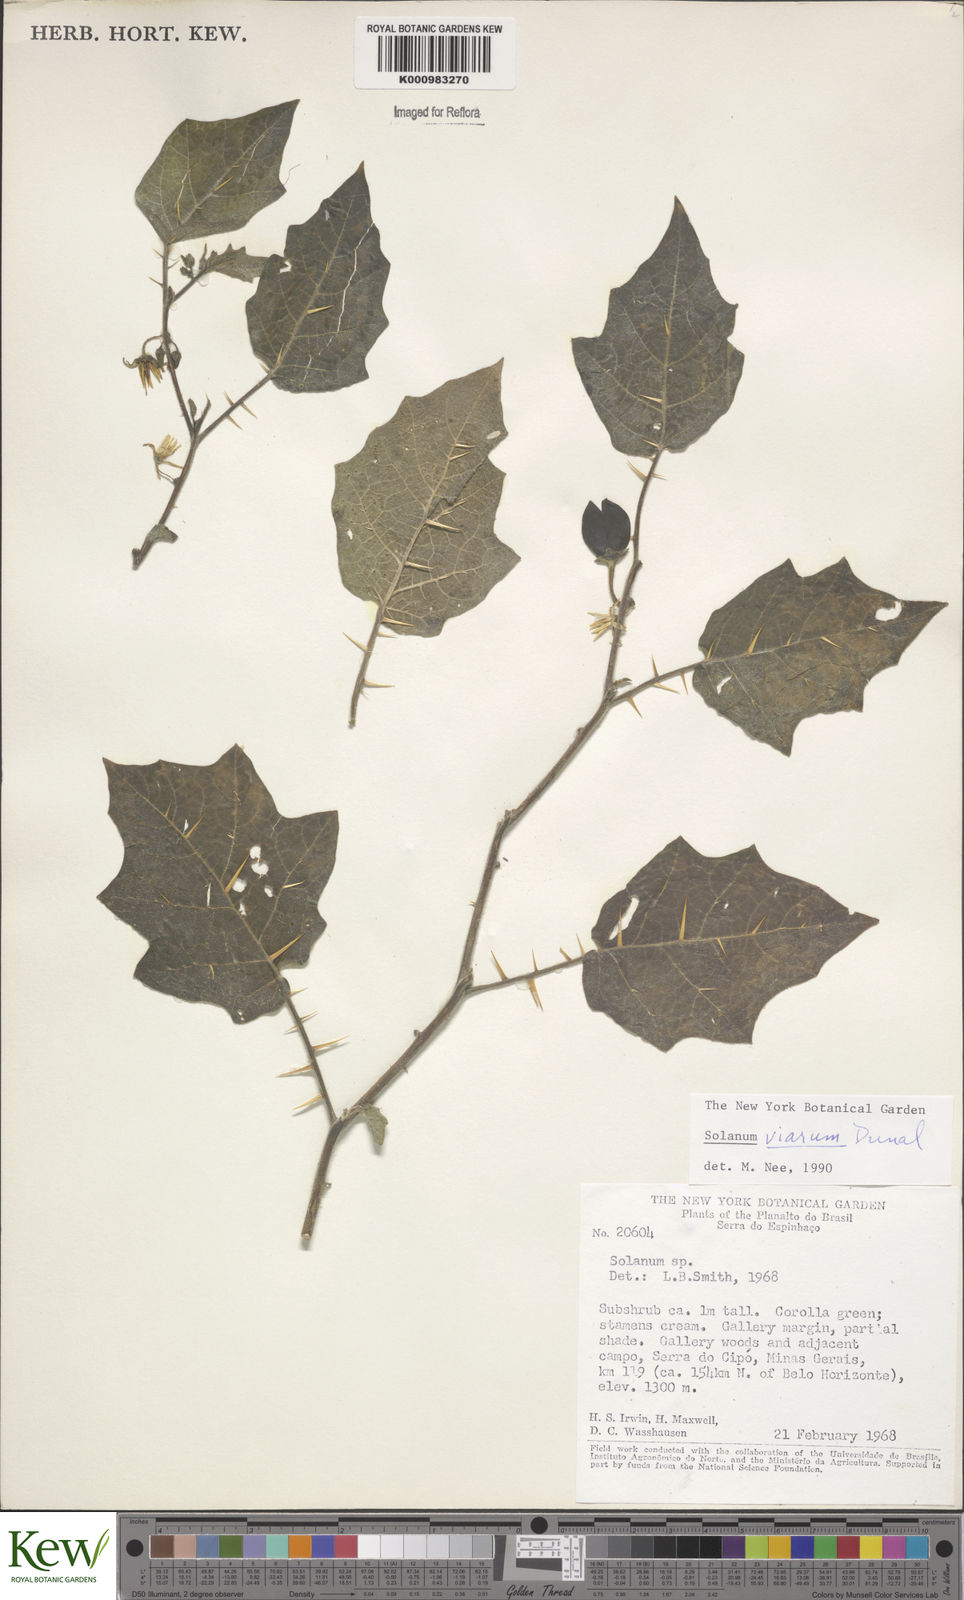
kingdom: Plantae
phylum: Tracheophyta
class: Magnoliopsida
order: Solanales
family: Solanaceae
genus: Solanum
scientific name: Solanum viarum
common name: Tropical soda apple
